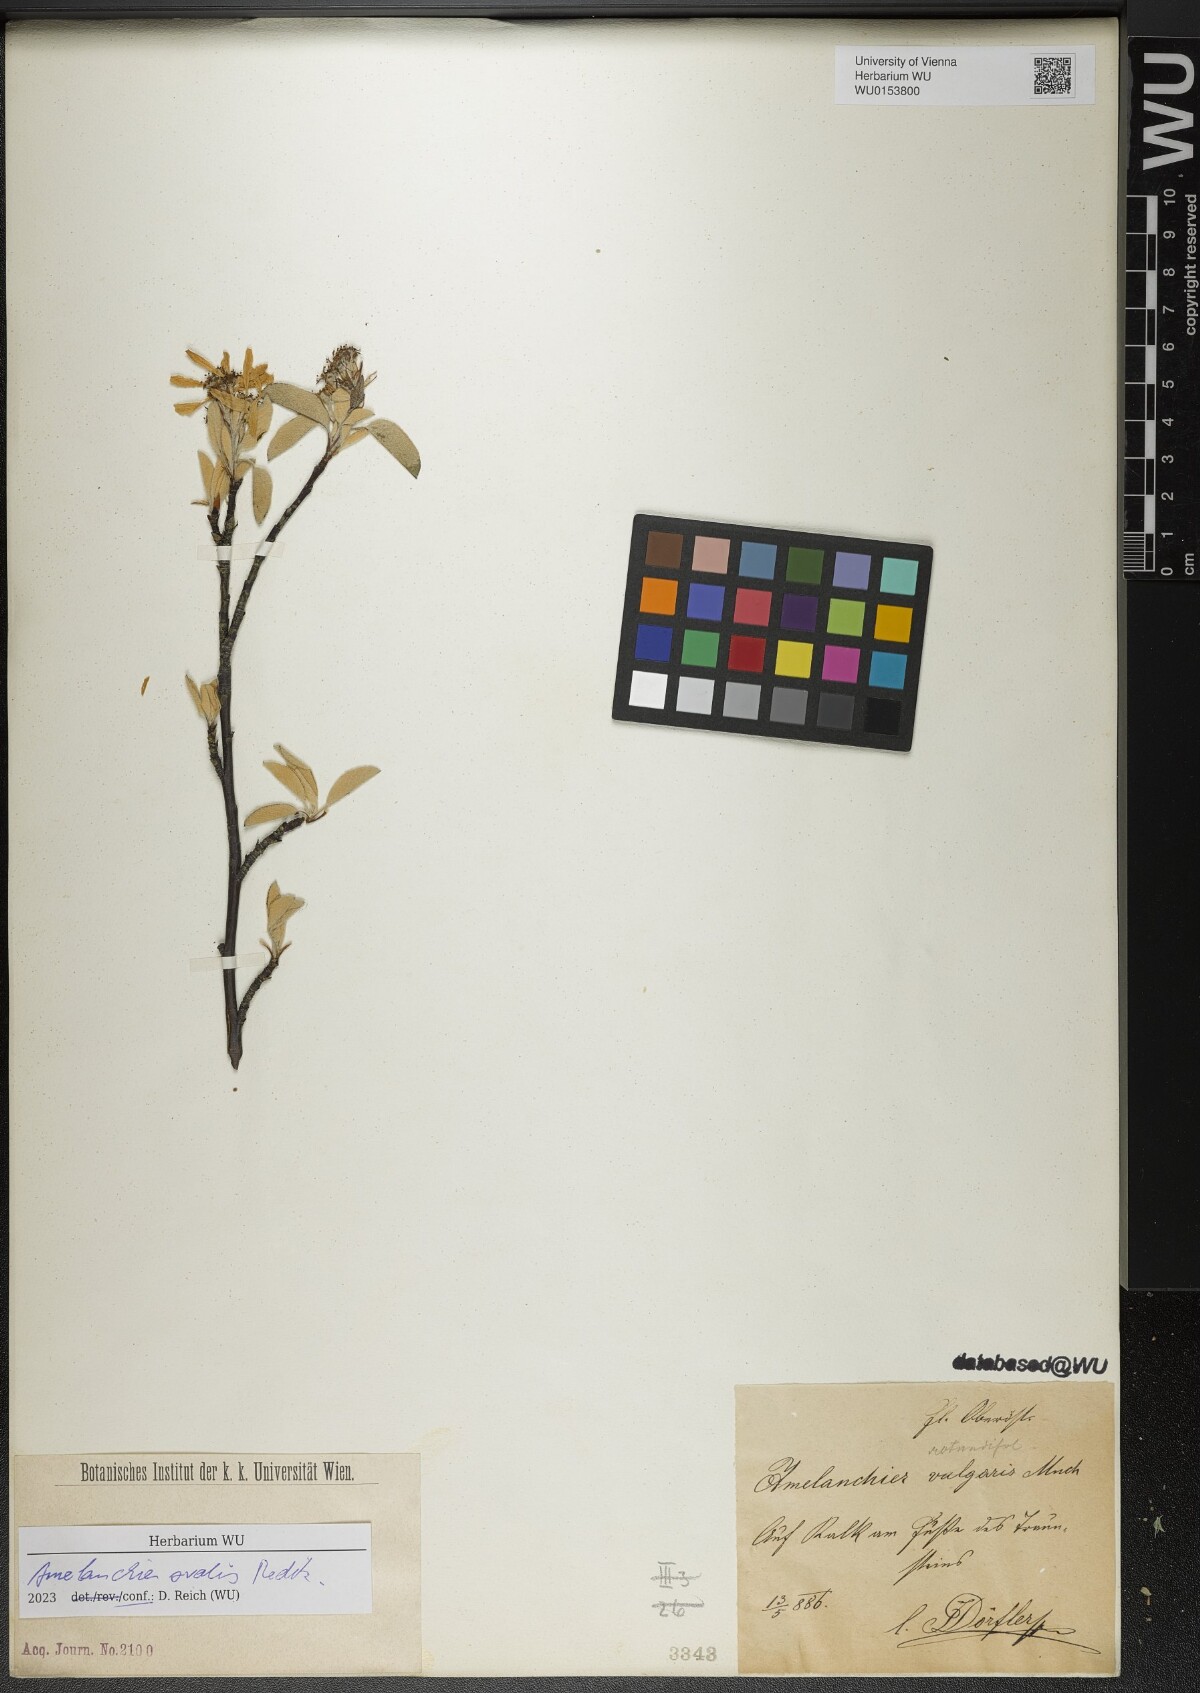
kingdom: Plantae
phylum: Tracheophyta
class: Magnoliopsida
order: Rosales
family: Rosaceae
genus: Amelanchier
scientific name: Amelanchier ovalis
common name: Serviceberry
